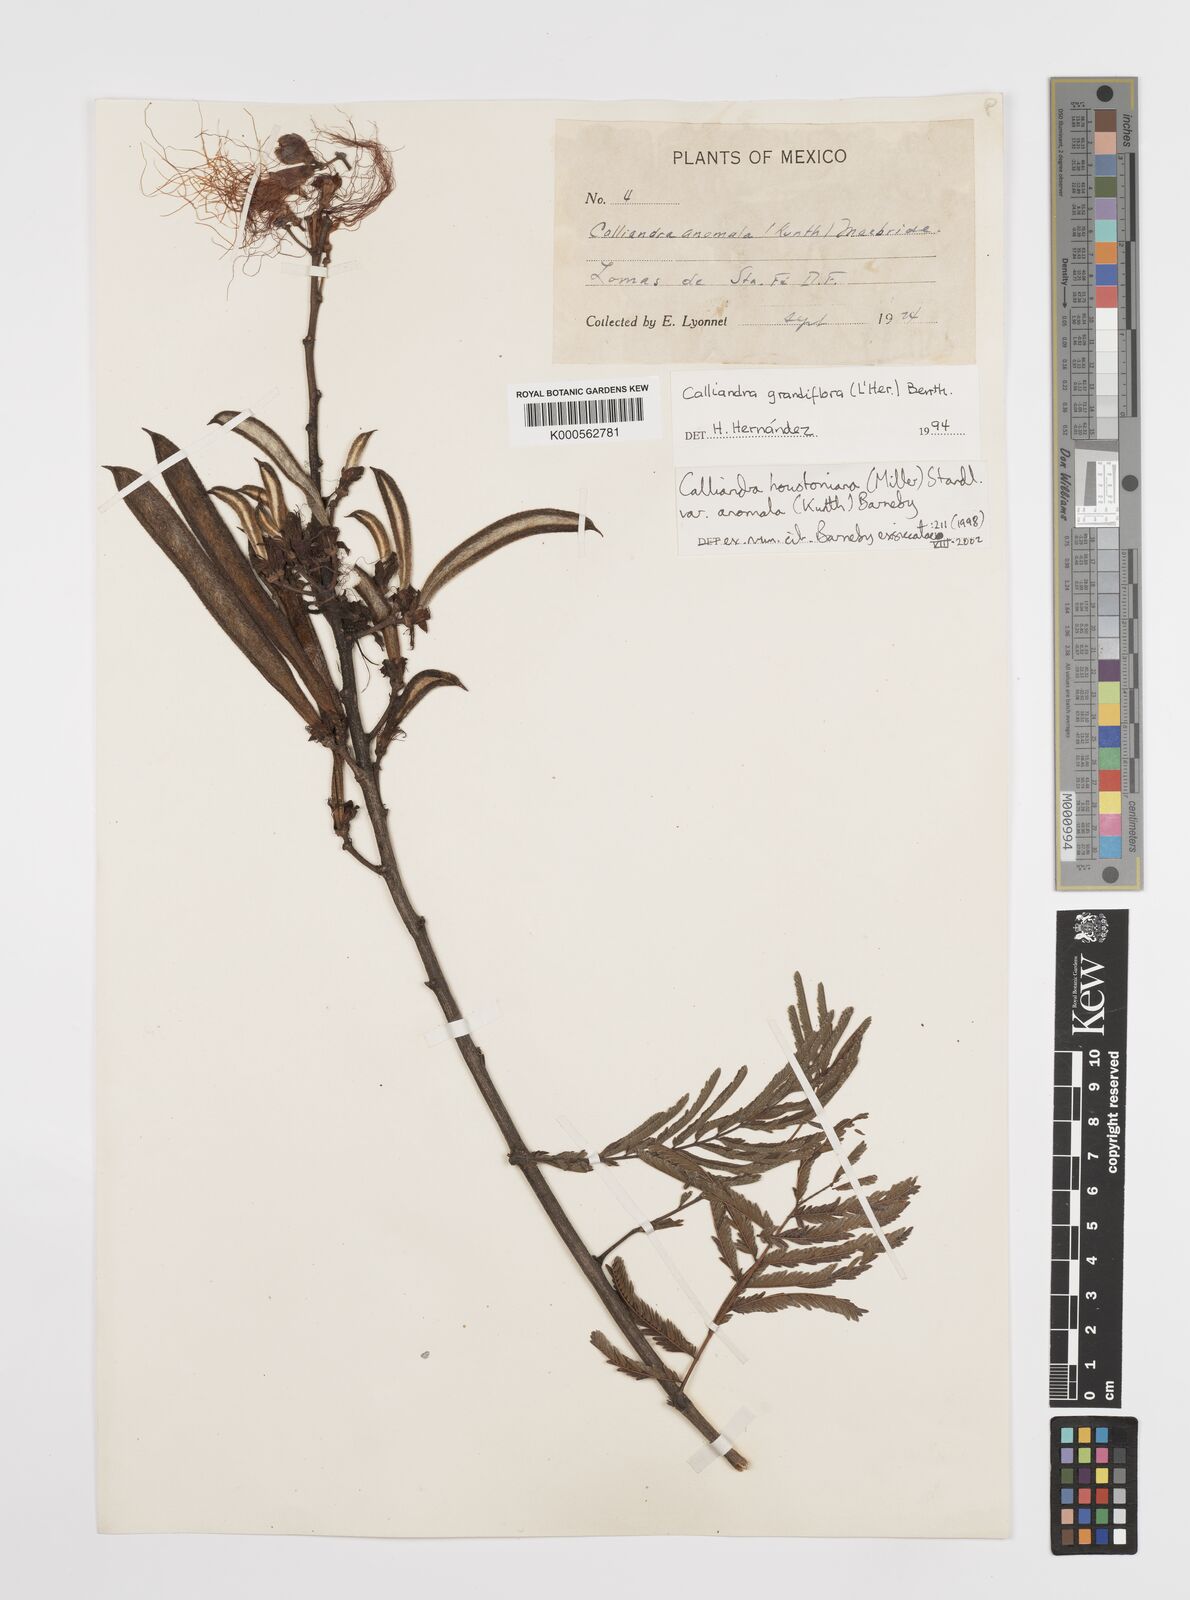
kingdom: Plantae
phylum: Tracheophyta
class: Magnoliopsida
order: Fabales
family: Fabaceae
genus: Calliandra
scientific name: Calliandra houstoniana
